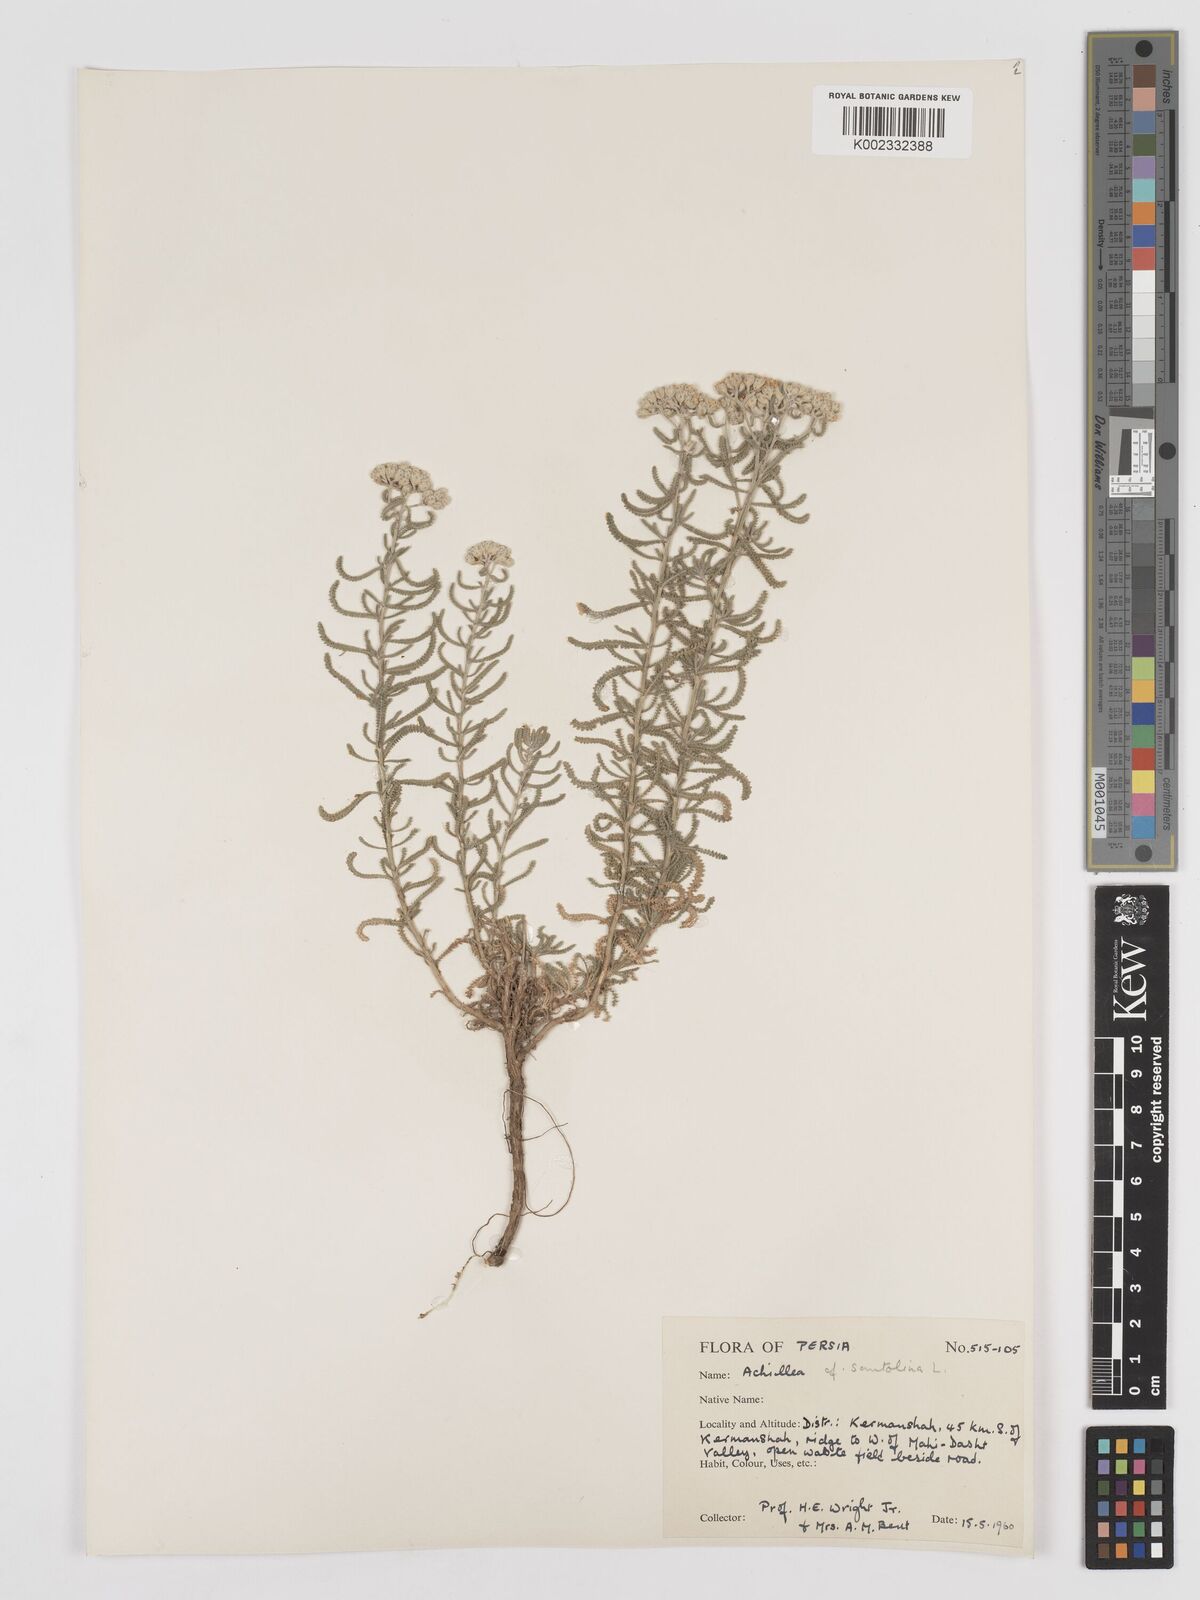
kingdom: Plantae
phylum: Tracheophyta
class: Magnoliopsida
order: Asterales
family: Asteraceae
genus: Achillea
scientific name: Achillea cretica
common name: Chamomile-leaved lavender-cotton
